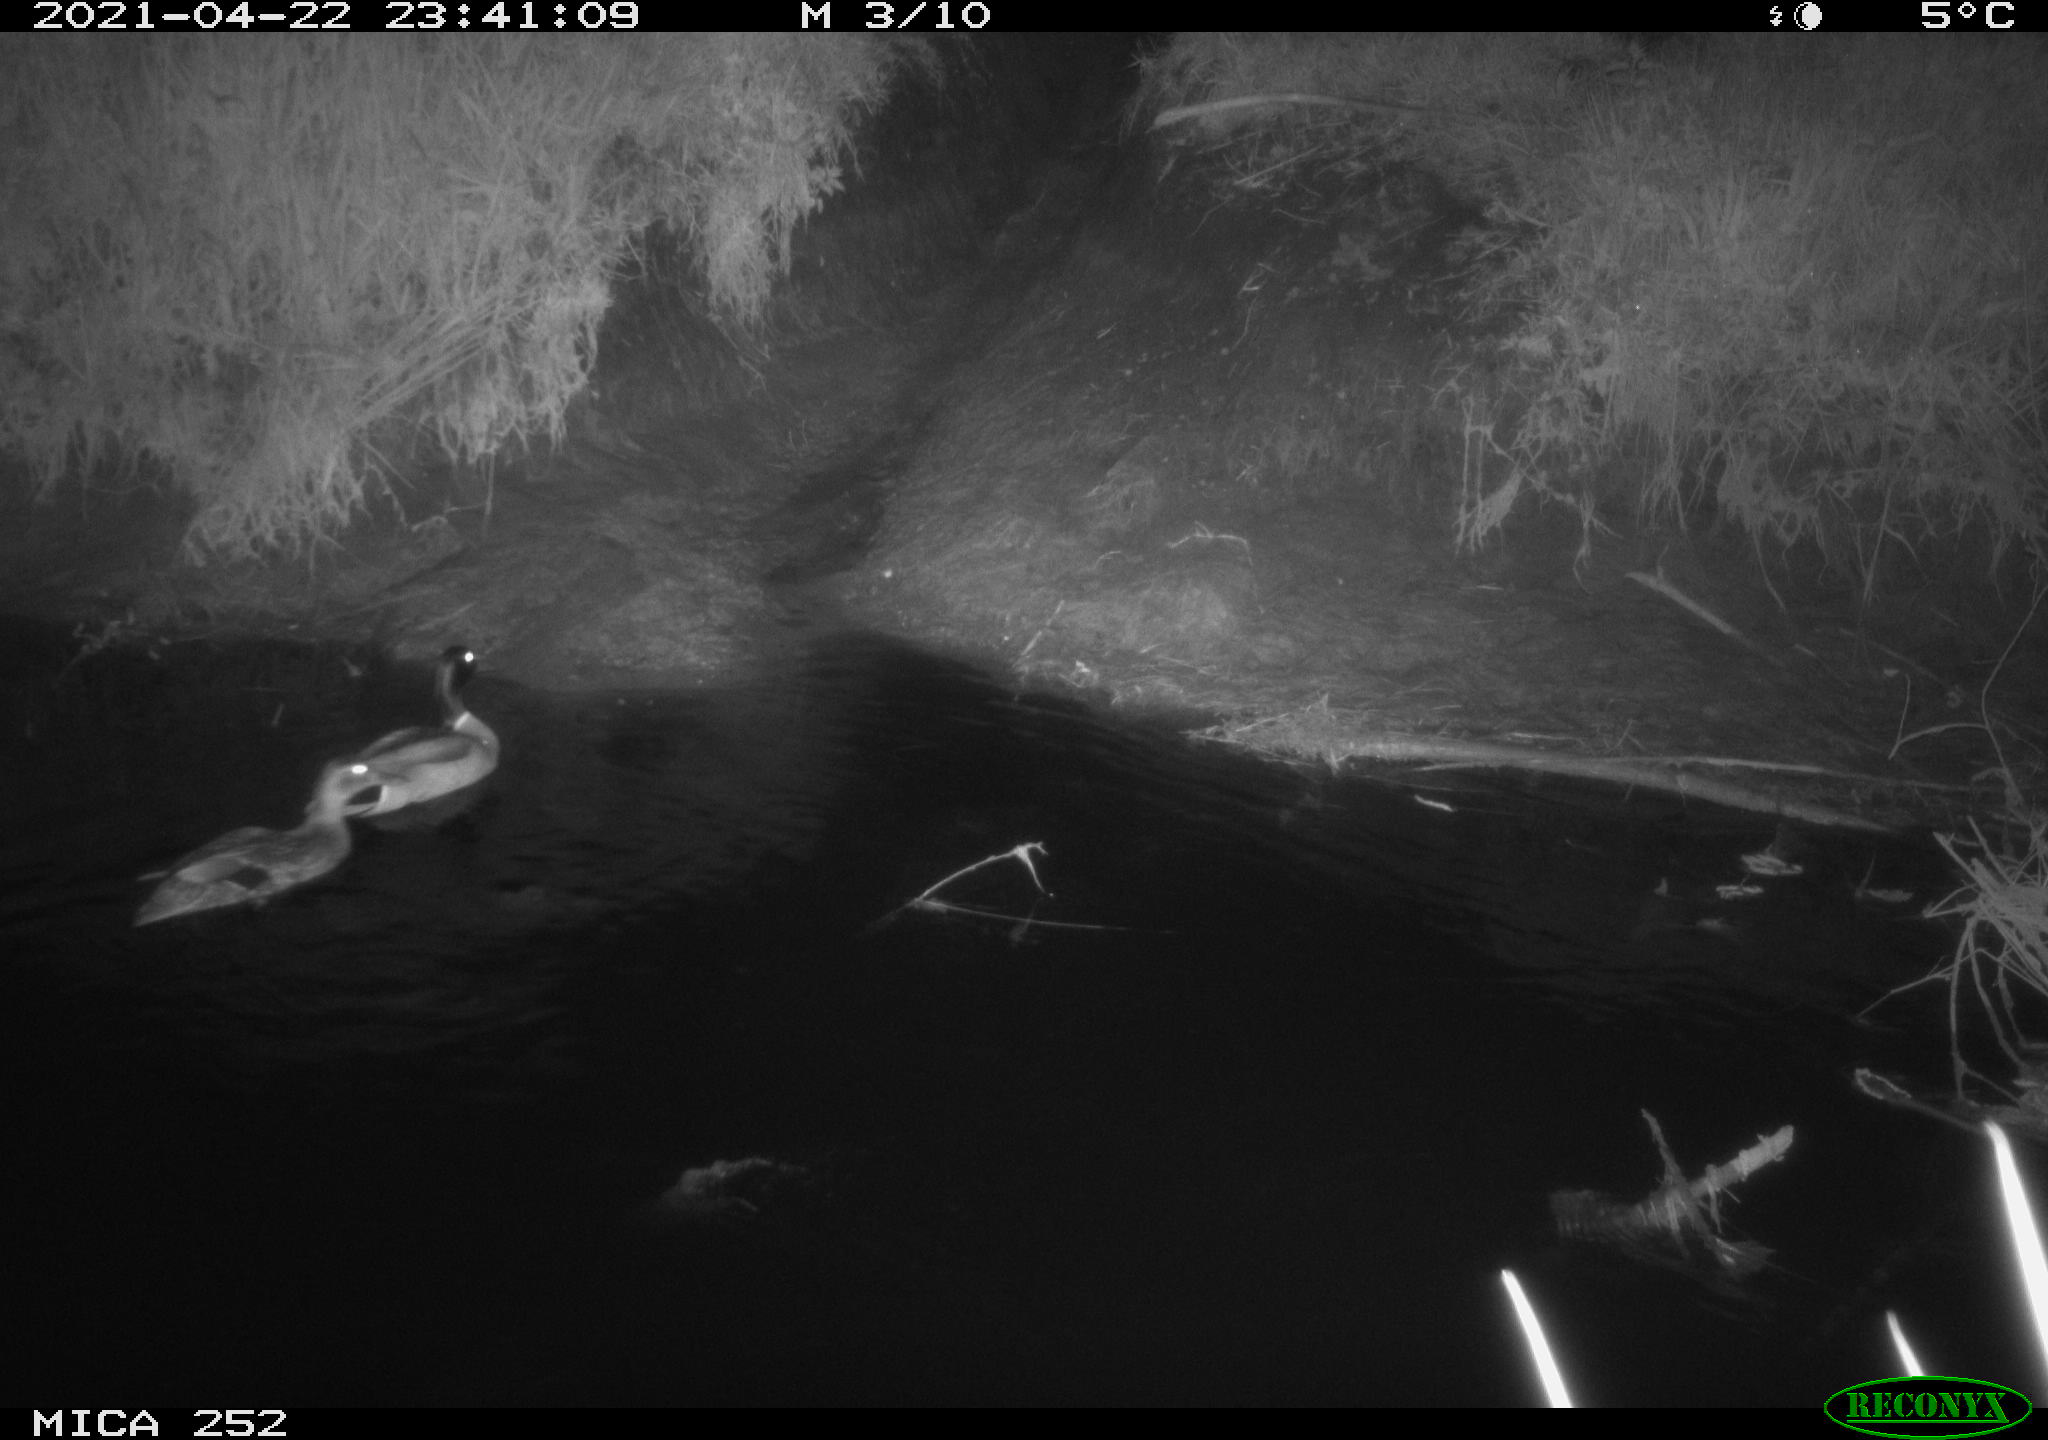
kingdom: Animalia
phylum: Chordata
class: Aves
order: Anseriformes
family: Anatidae
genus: Anas
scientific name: Anas platyrhynchos
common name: Mallard
